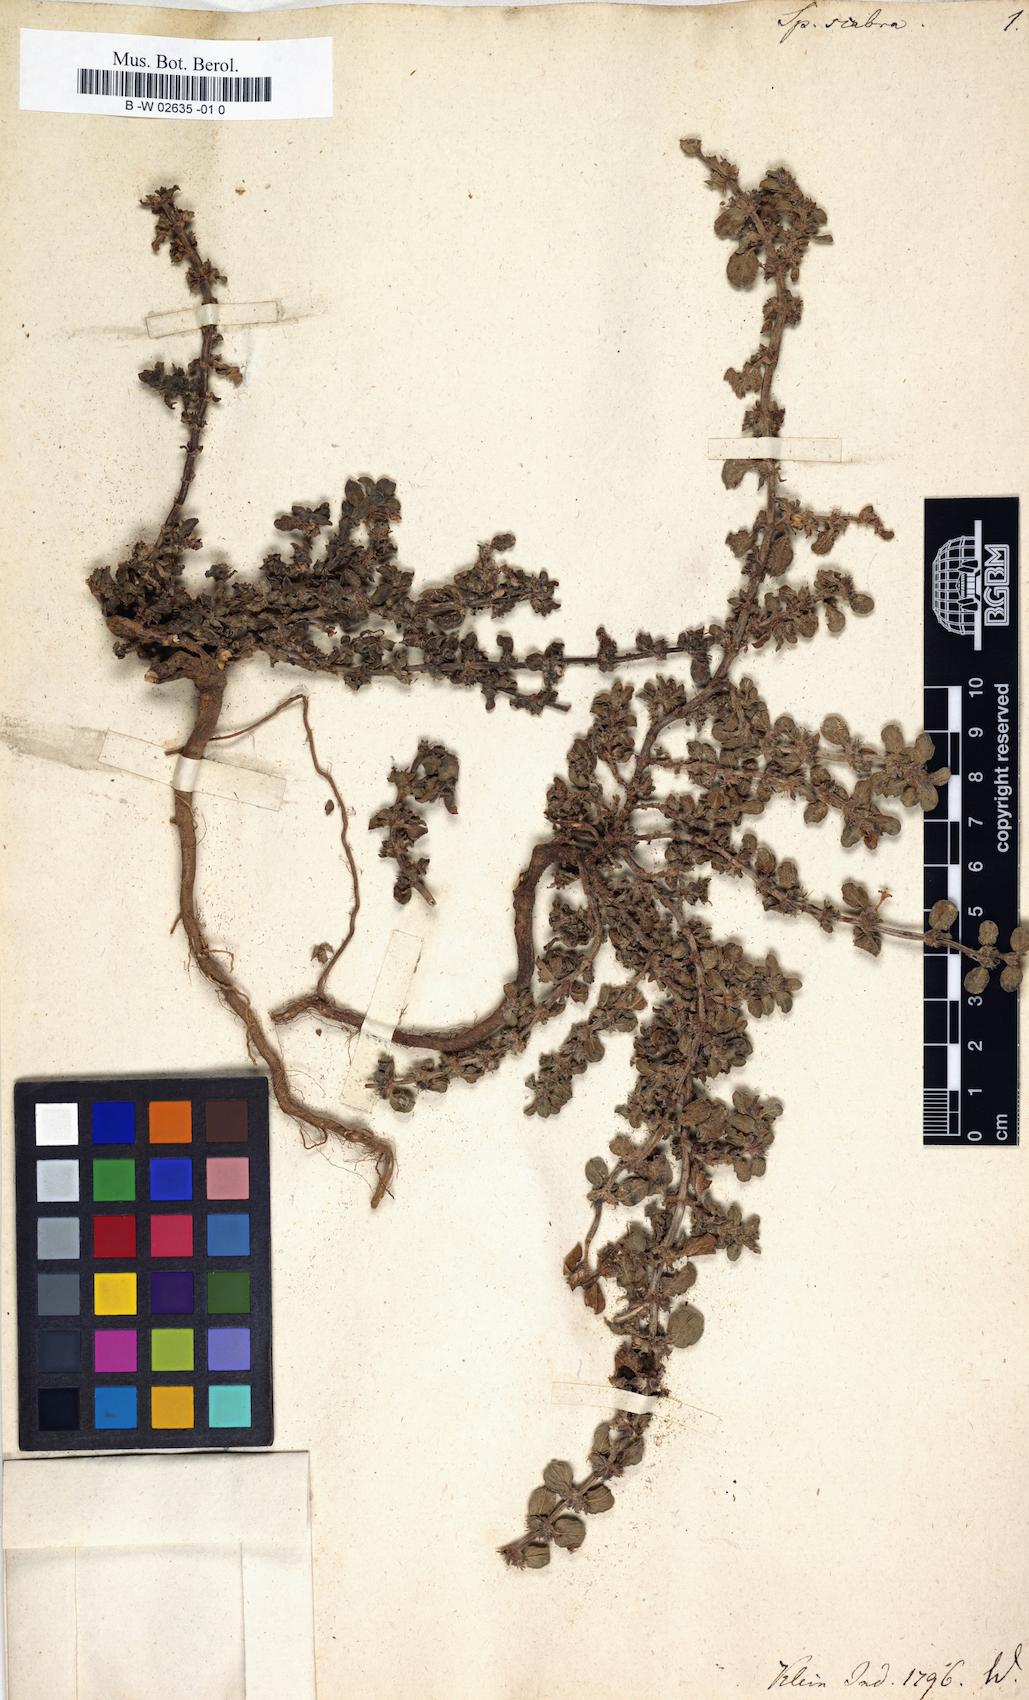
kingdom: Plantae
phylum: Tracheophyta
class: Magnoliopsida
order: Gentianales
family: Rubiaceae
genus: Spermacoce
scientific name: Spermacoce articularis
